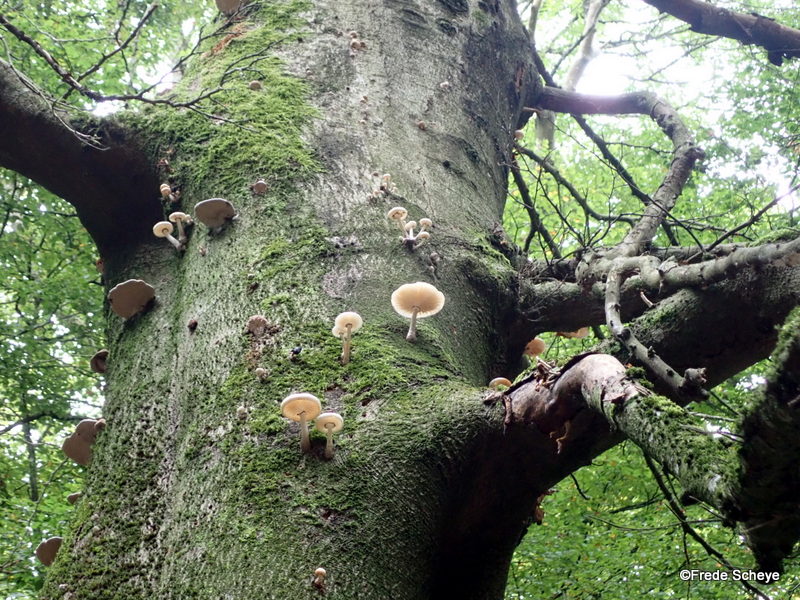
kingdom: Fungi
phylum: Basidiomycota
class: Agaricomycetes
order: Agaricales
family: Physalacriaceae
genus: Mucidula
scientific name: Mucidula mucida
